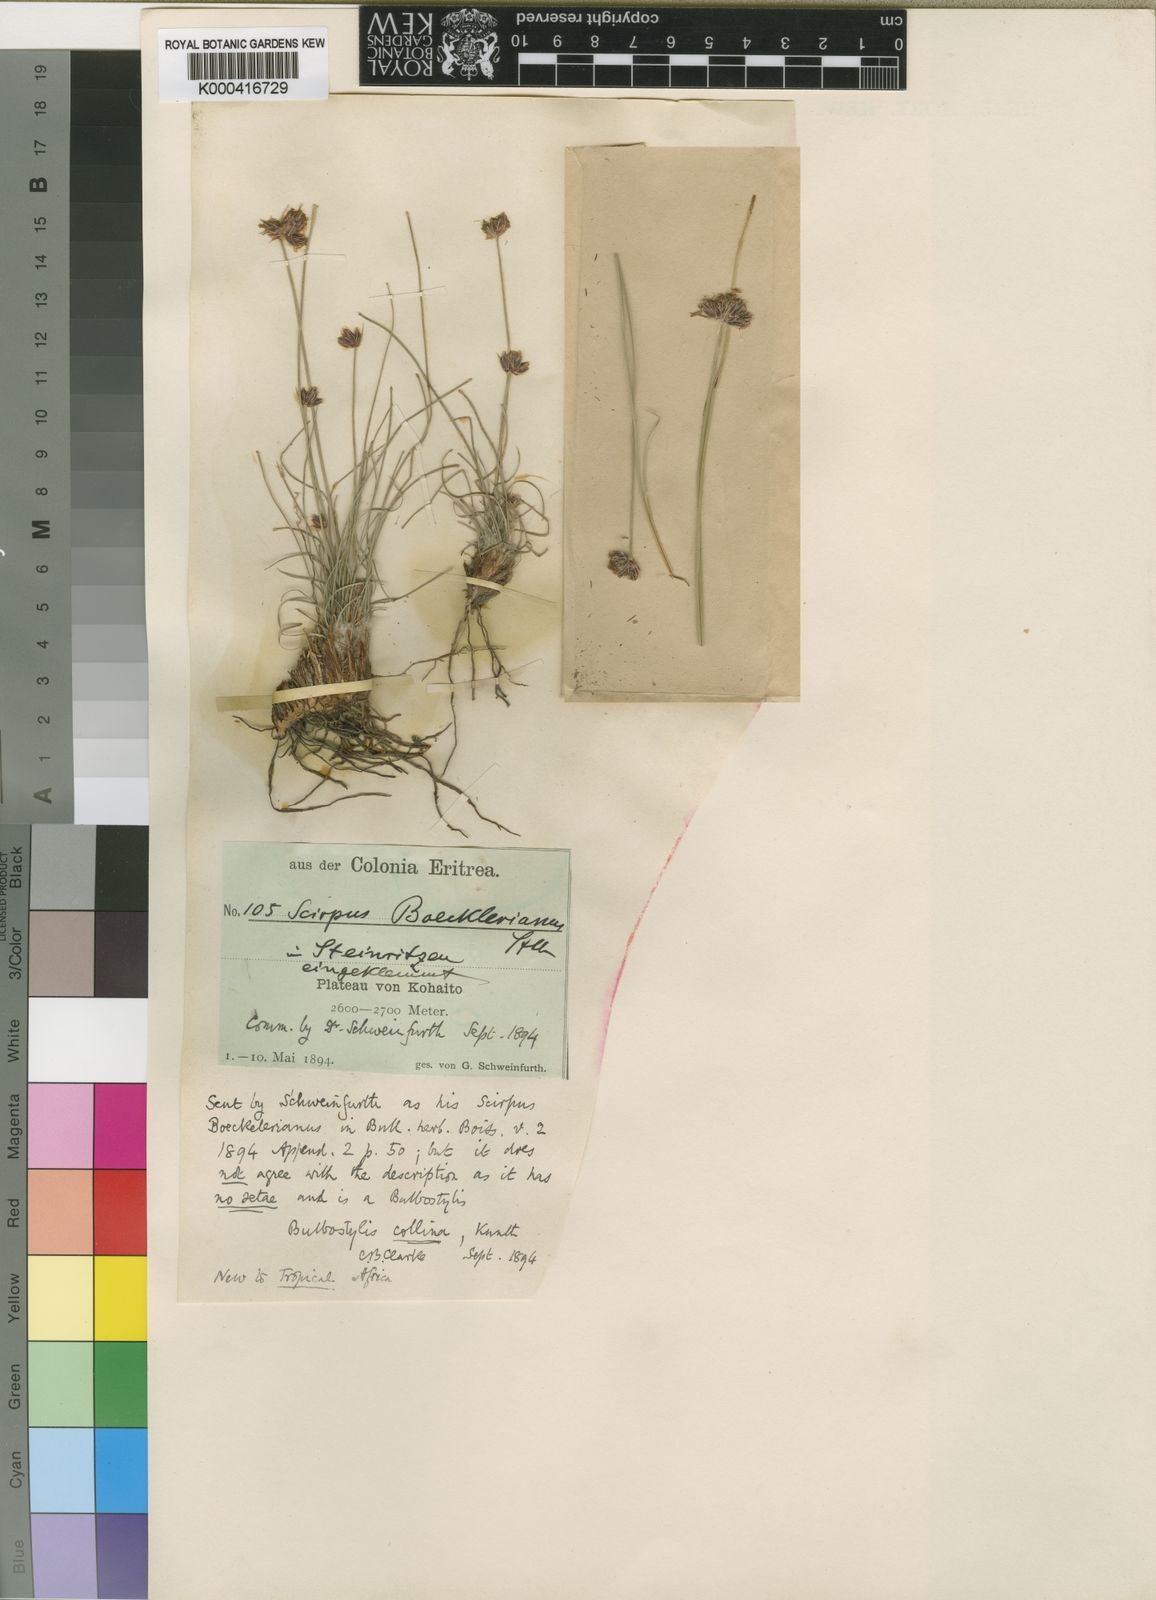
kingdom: Plantae
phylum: Tracheophyta
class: Liliopsida
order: Poales
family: Cyperaceae
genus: Bulbostylis
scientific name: Bulbostylis boeckeleriana
